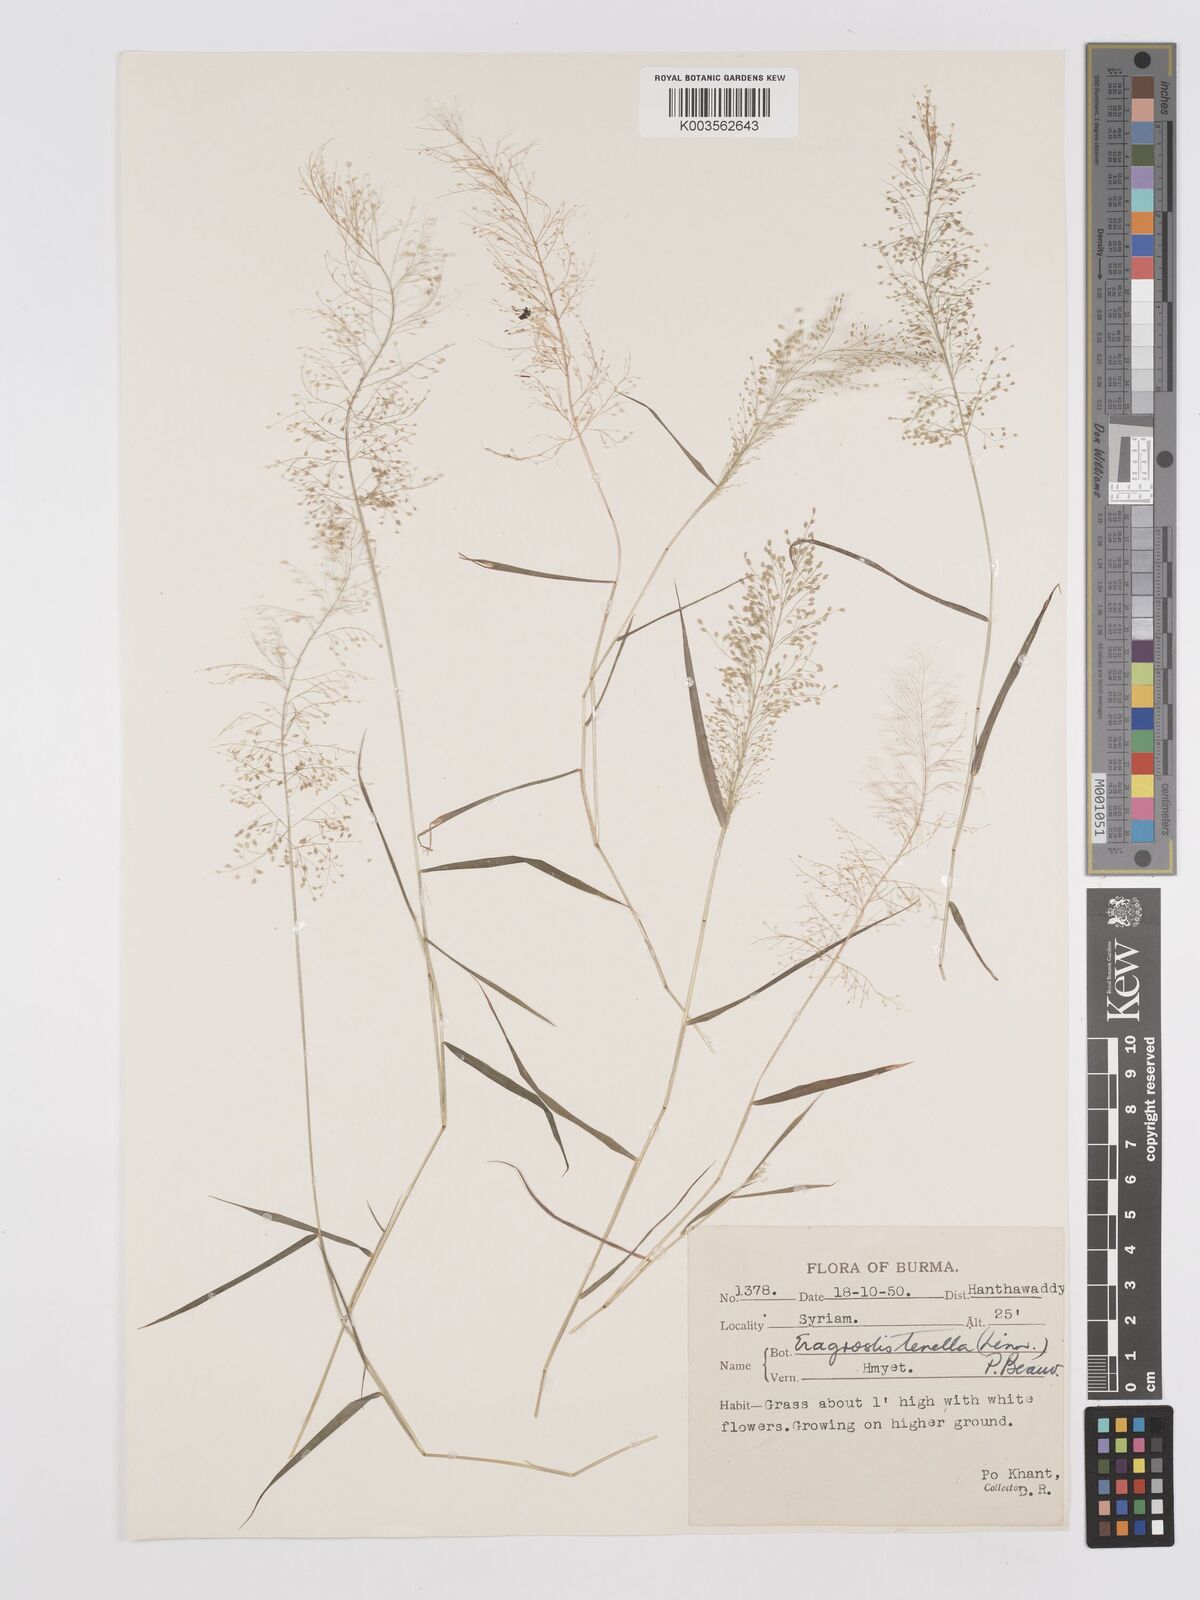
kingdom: Plantae
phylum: Tracheophyta
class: Liliopsida
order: Poales
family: Poaceae
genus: Eragrostis
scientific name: Eragrostis tenella
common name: Japanese lovegrass
